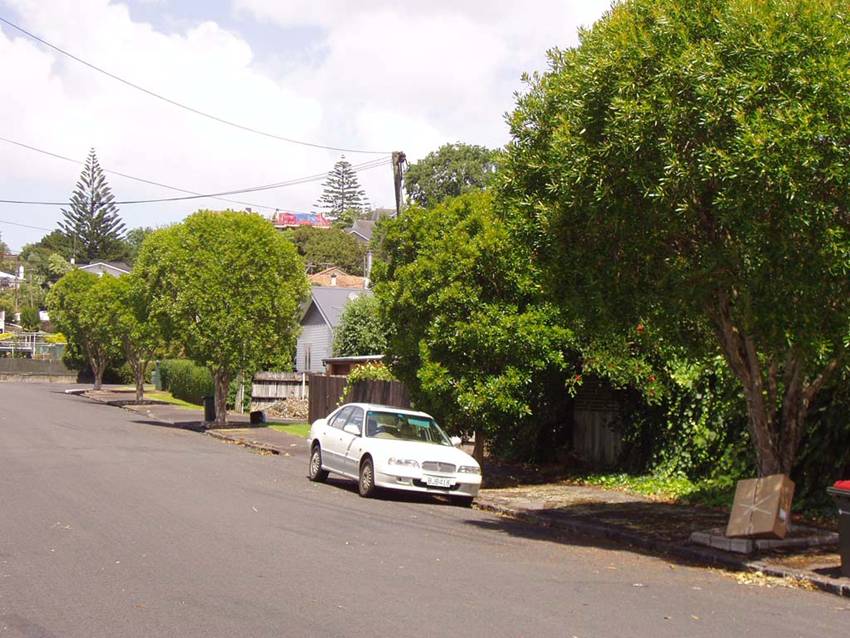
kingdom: Plantae
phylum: Tracheophyta
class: Magnoliopsida
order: Myrtales
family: Myrtaceae
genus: Tristaniopsis
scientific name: Tristaniopsis laurina
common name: Water-gum
